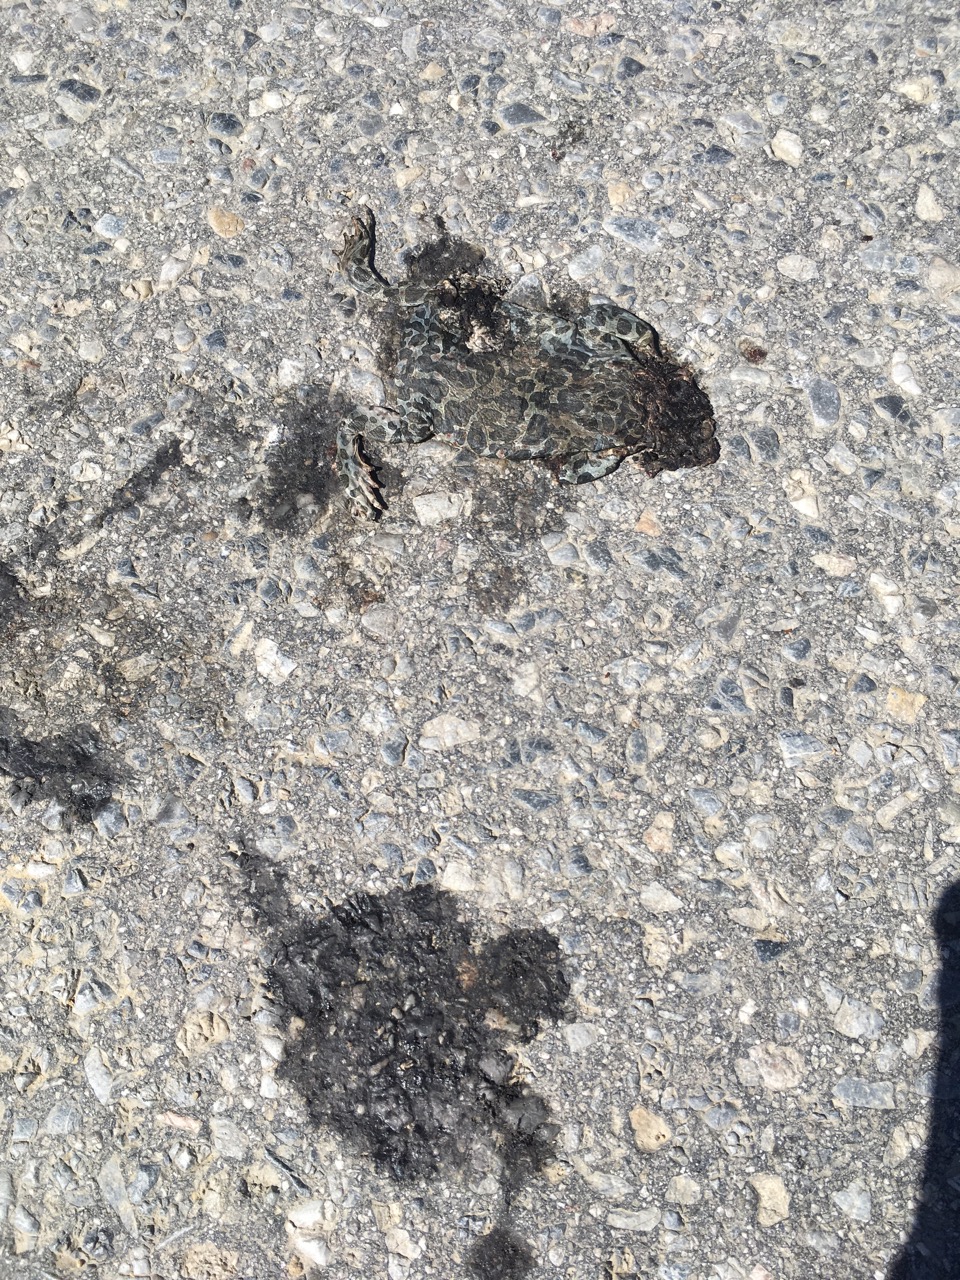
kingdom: Animalia
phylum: Chordata
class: Amphibia
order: Anura
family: Bufonidae
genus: Bufotes
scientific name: Bufotes viridis
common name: European green toad
